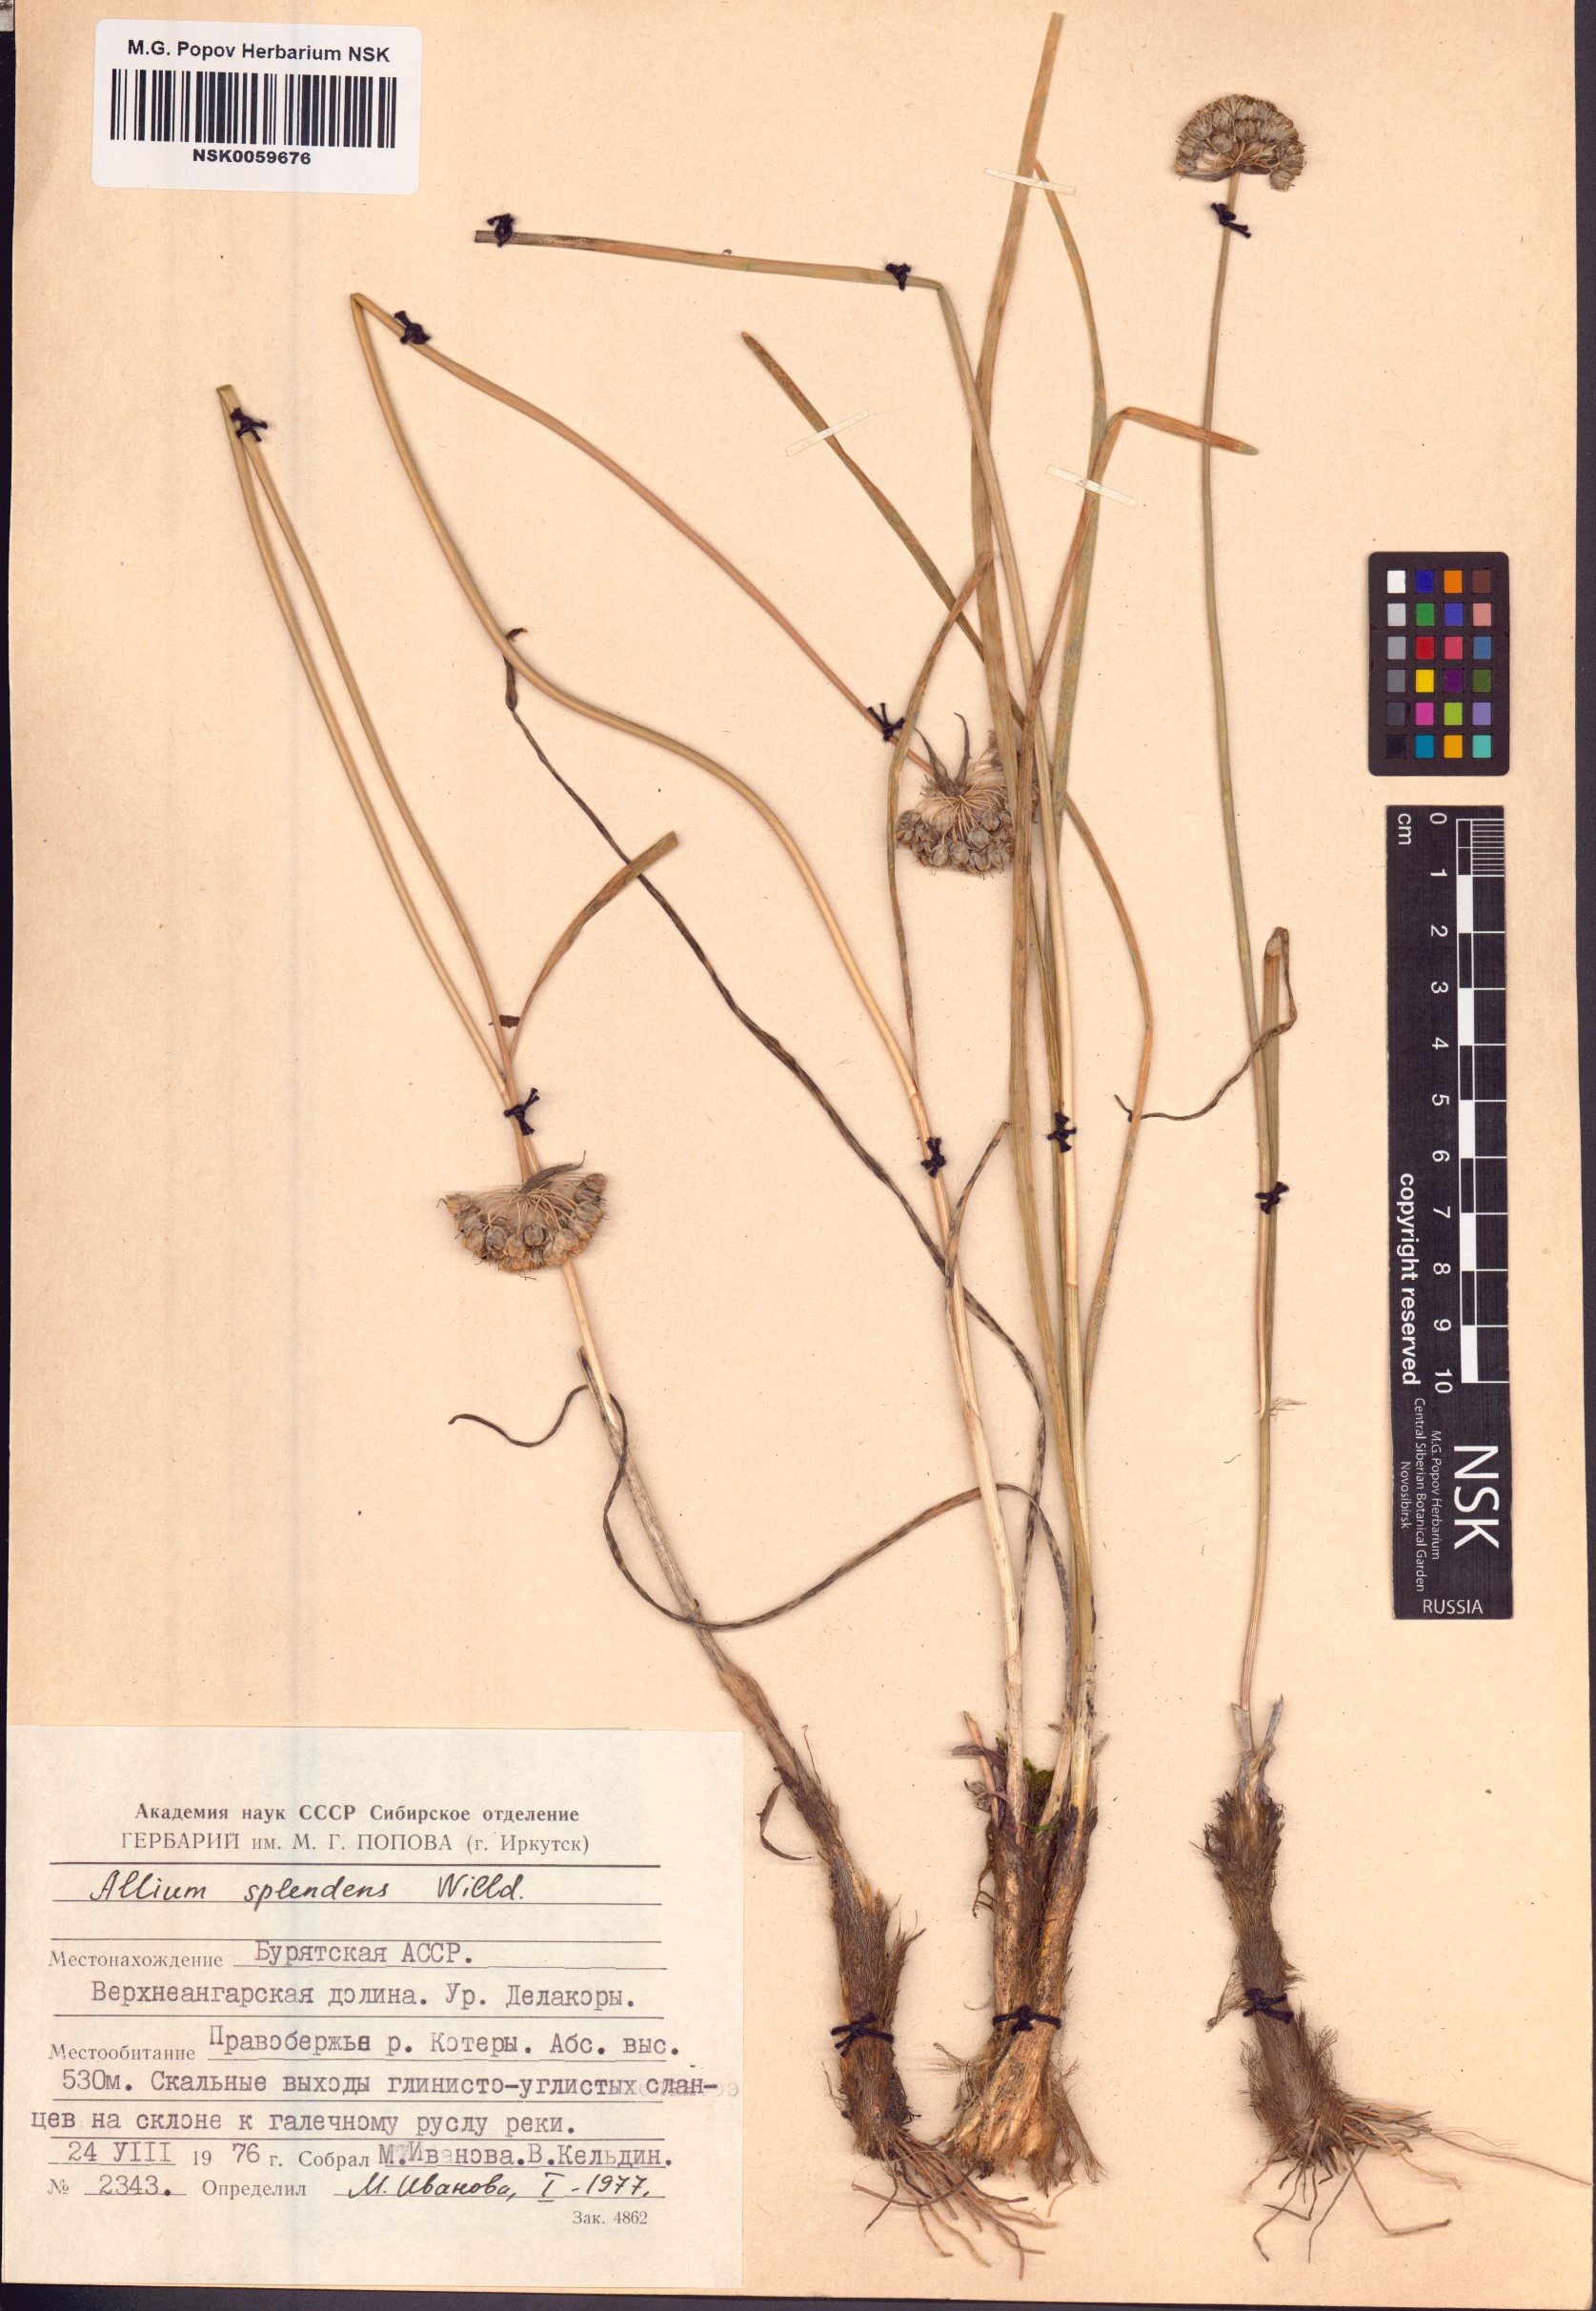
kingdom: Plantae
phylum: Tracheophyta
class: Liliopsida
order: Asparagales
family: Amaryllidaceae
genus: Allium
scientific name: Allium splendens
